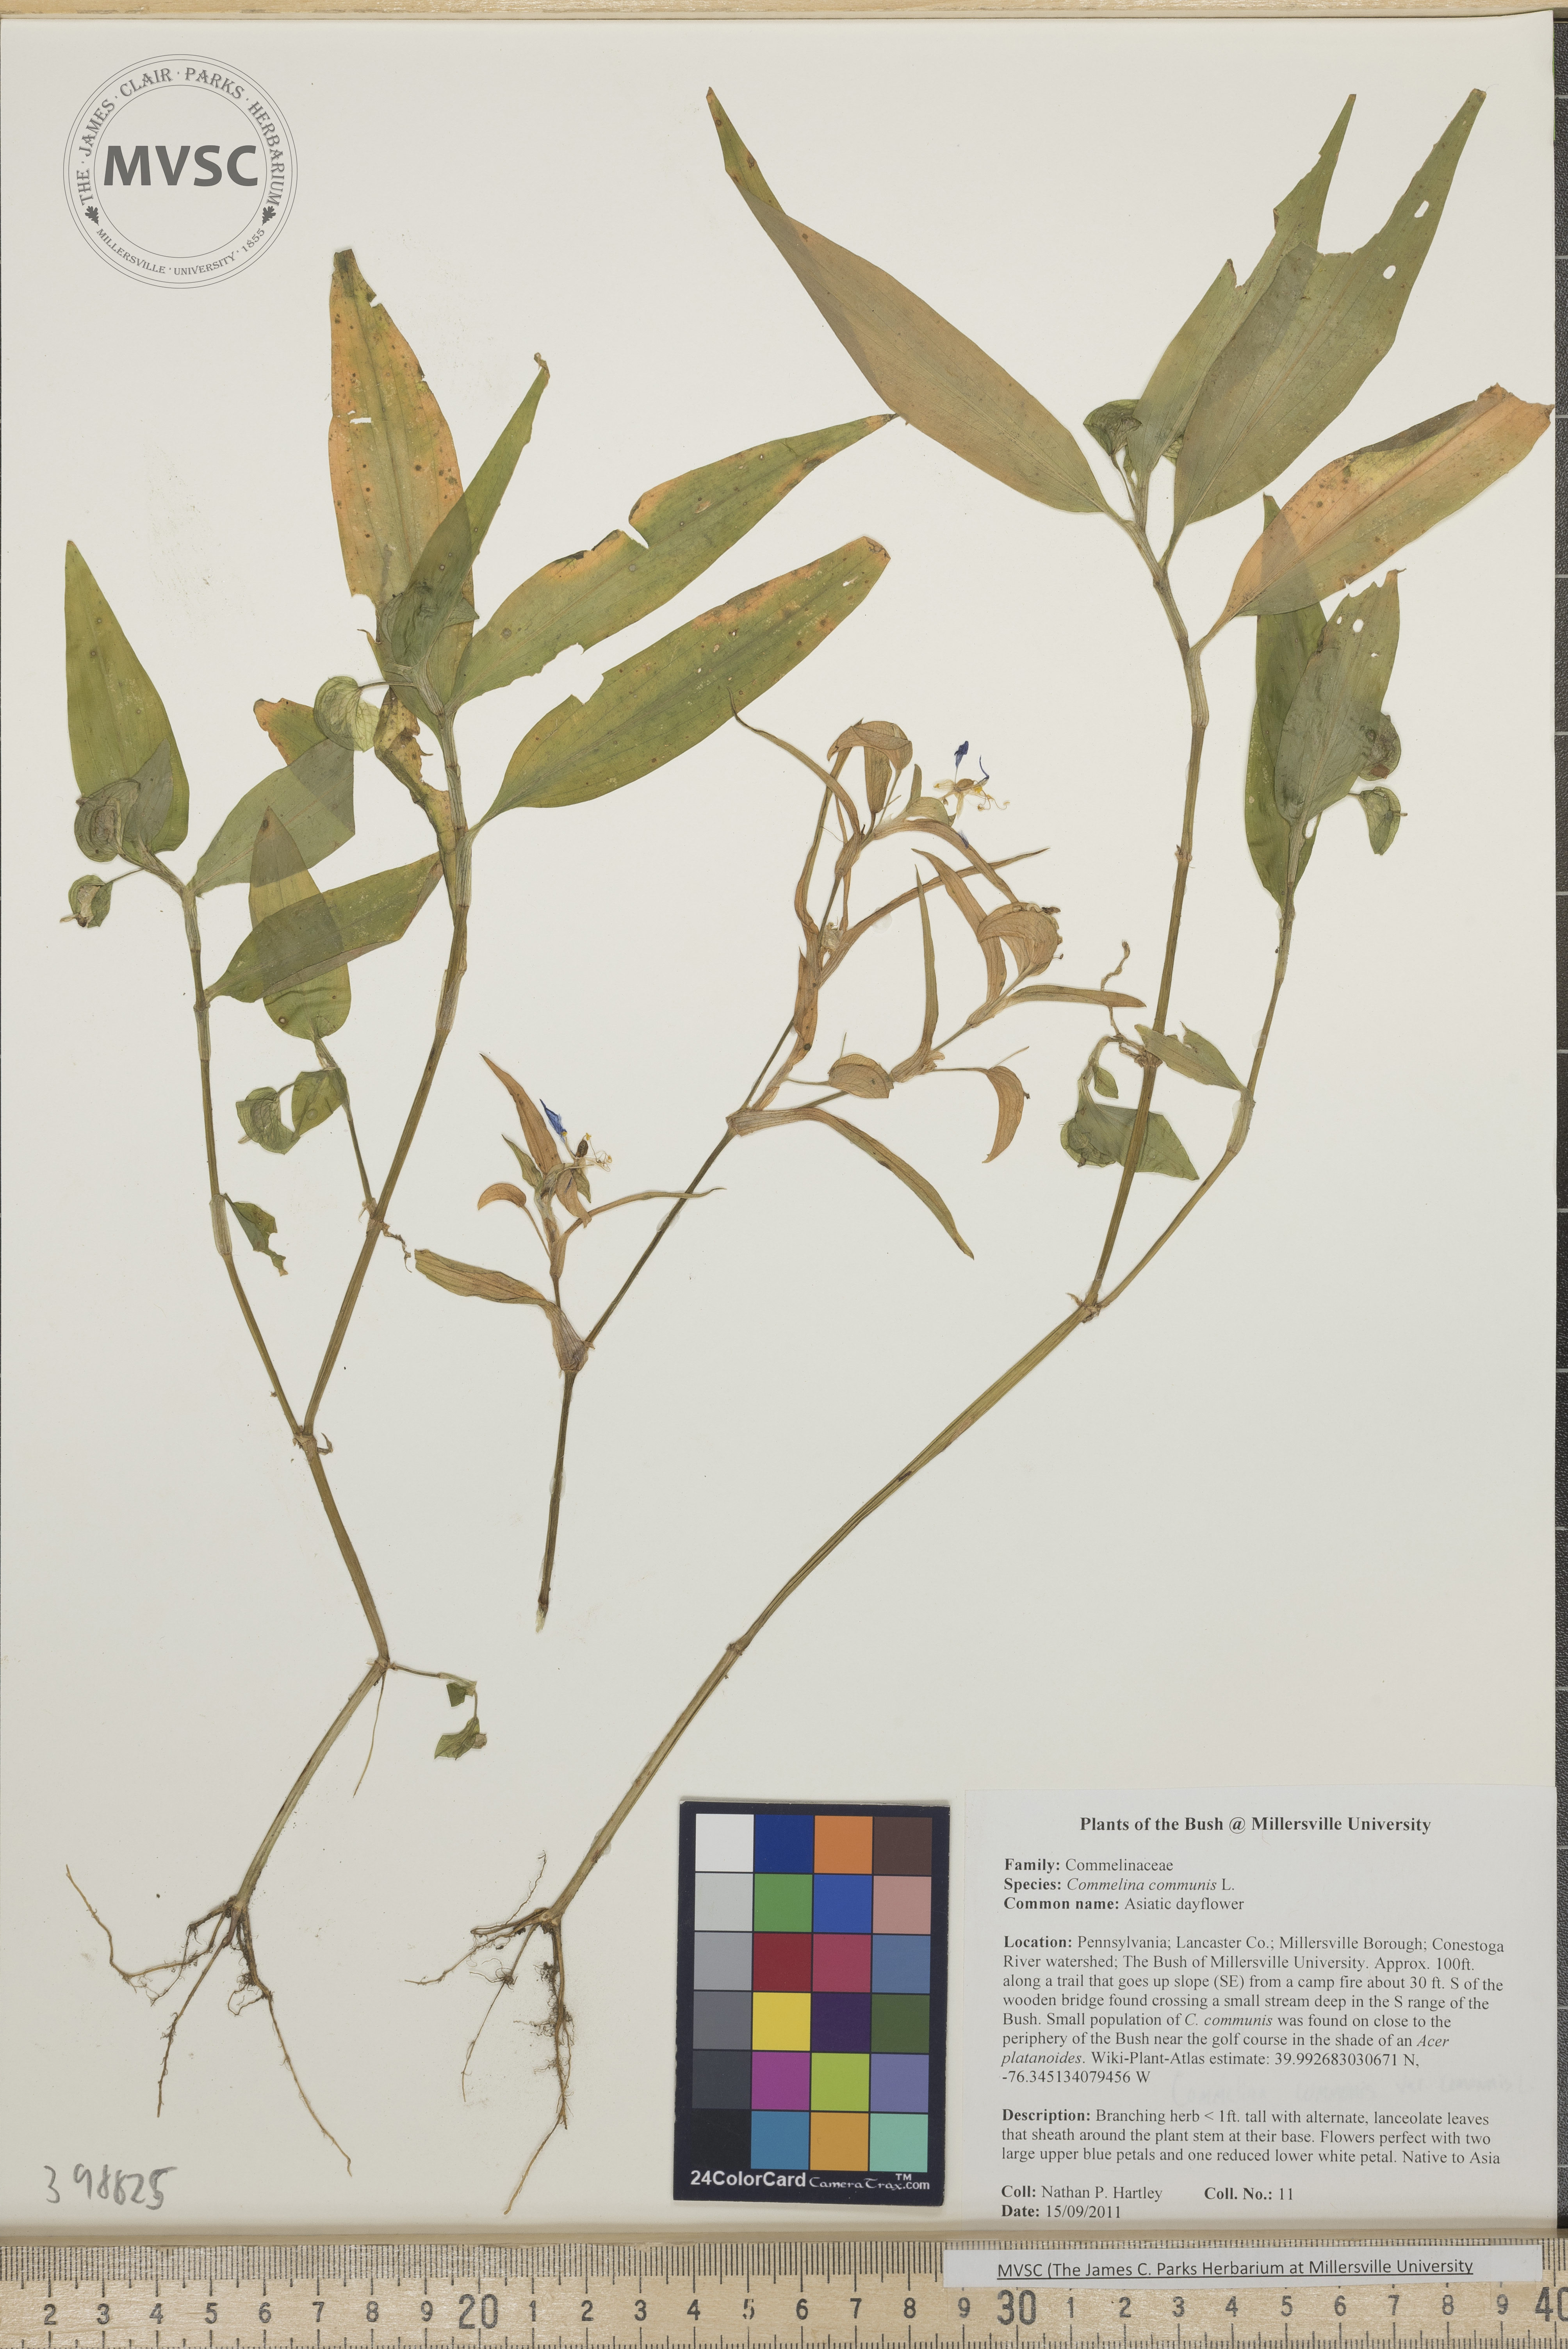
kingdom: Plantae
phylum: Tracheophyta
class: Liliopsida
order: Commelinales
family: Commelinaceae
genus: Commelina
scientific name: Commelina communis
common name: Asiatic Dayflower
